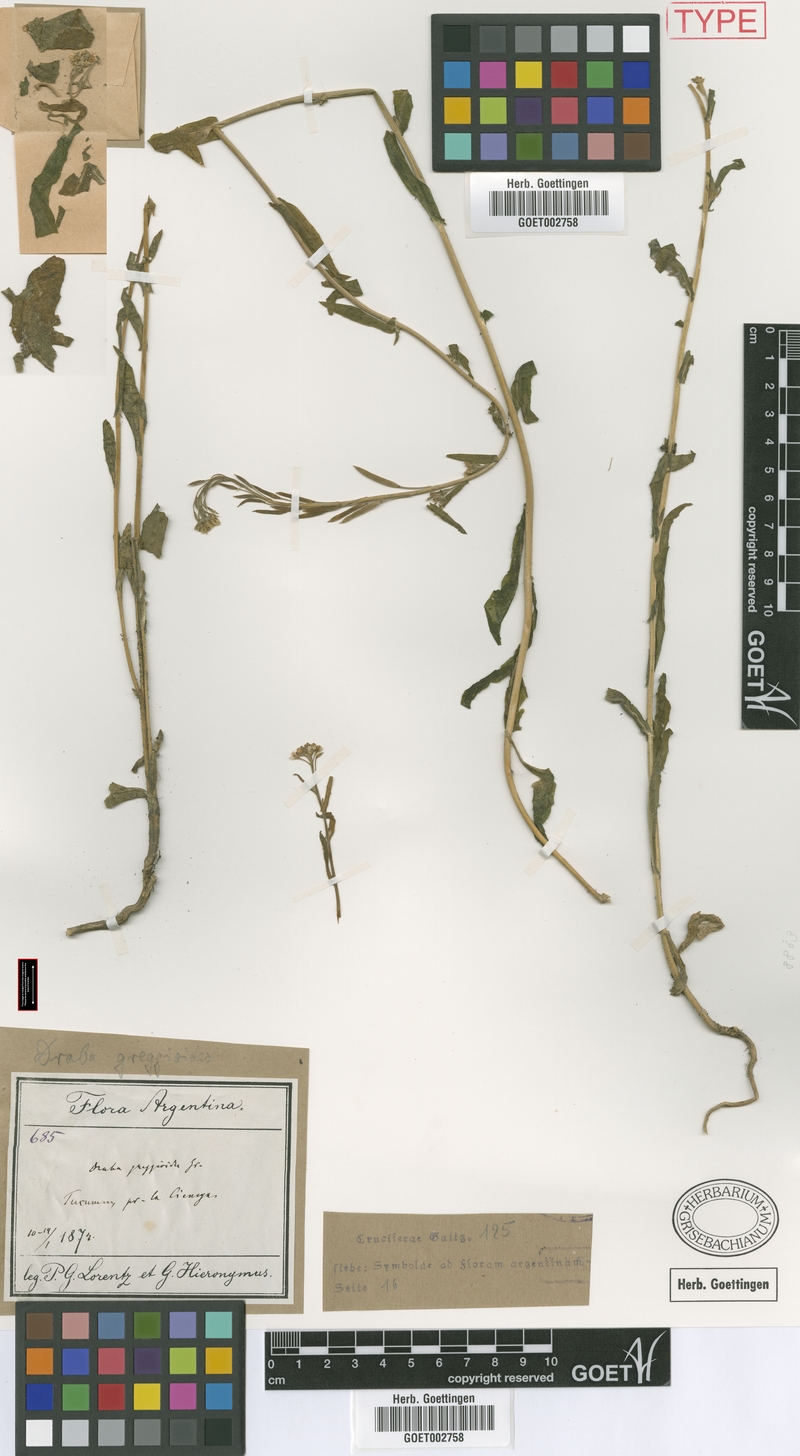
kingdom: Plantae
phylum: Tracheophyta
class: Magnoliopsida
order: Brassicales
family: Brassicaceae
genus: Exhalimolobos
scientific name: Exhalimolobos weddellii
